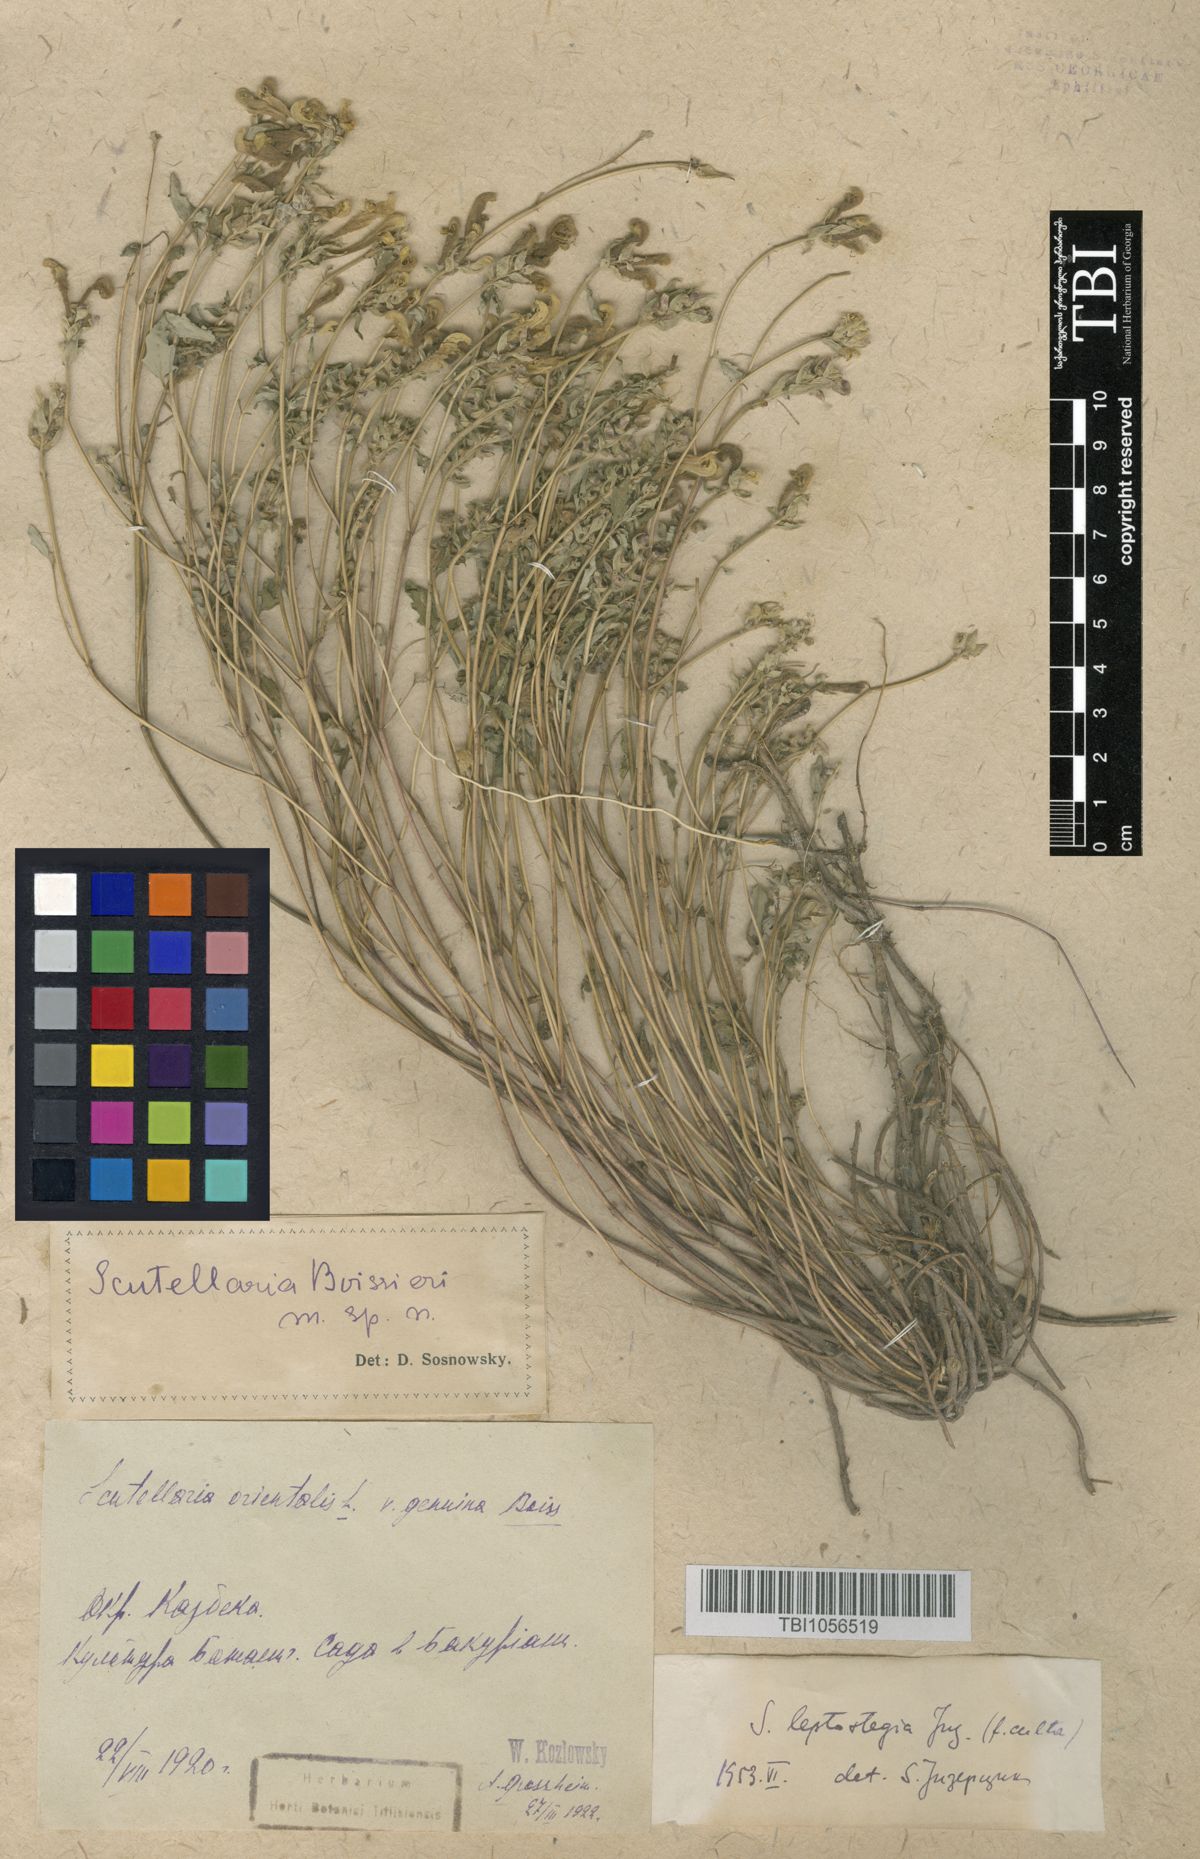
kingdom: Plantae
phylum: Tracheophyta
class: Magnoliopsida
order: Lamiales
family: Lamiaceae
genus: Scutellaria
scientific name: Scutellaria leptostegia
